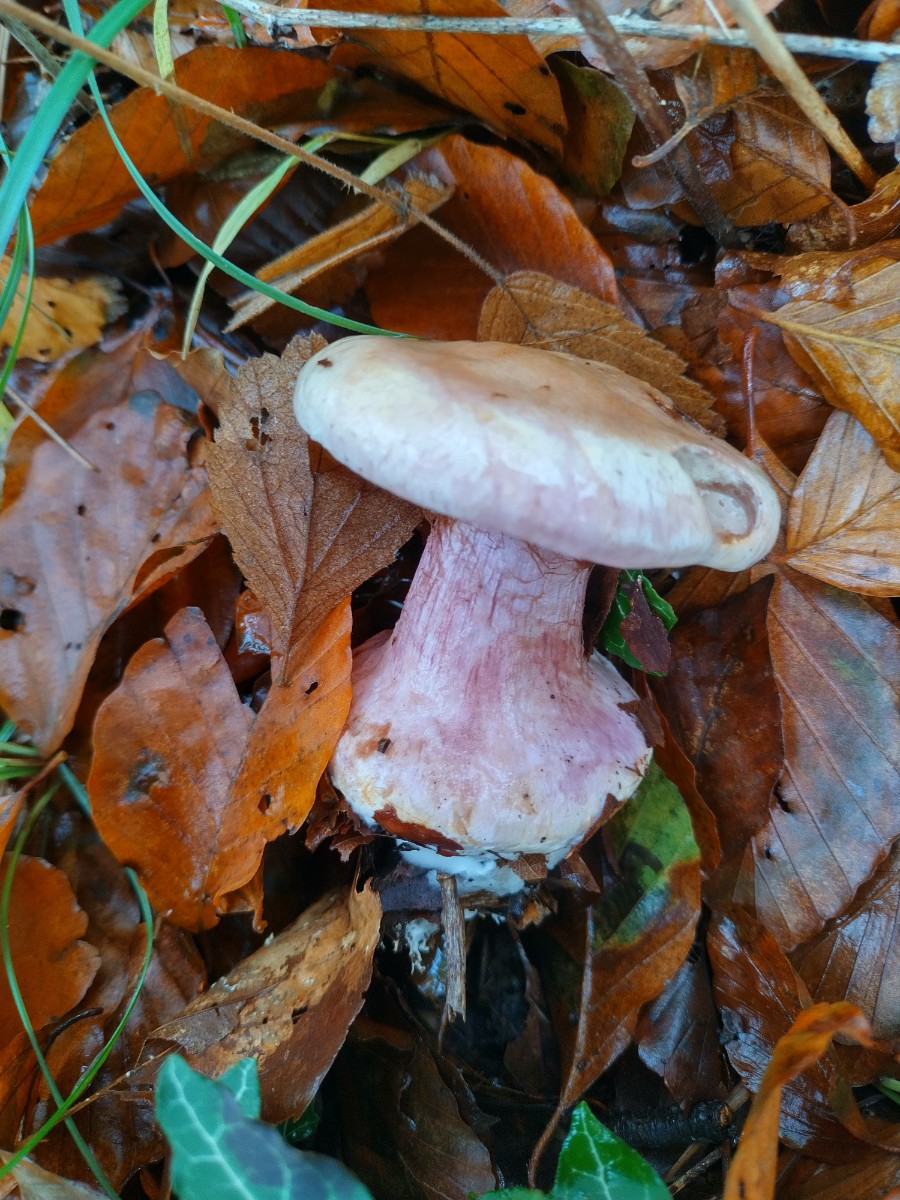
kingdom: Fungi
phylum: Basidiomycota
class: Agaricomycetes
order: Agaricales
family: Cortinariaceae
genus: Calonarius
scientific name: Calonarius suaveolens
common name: sødtduftende slørhat
